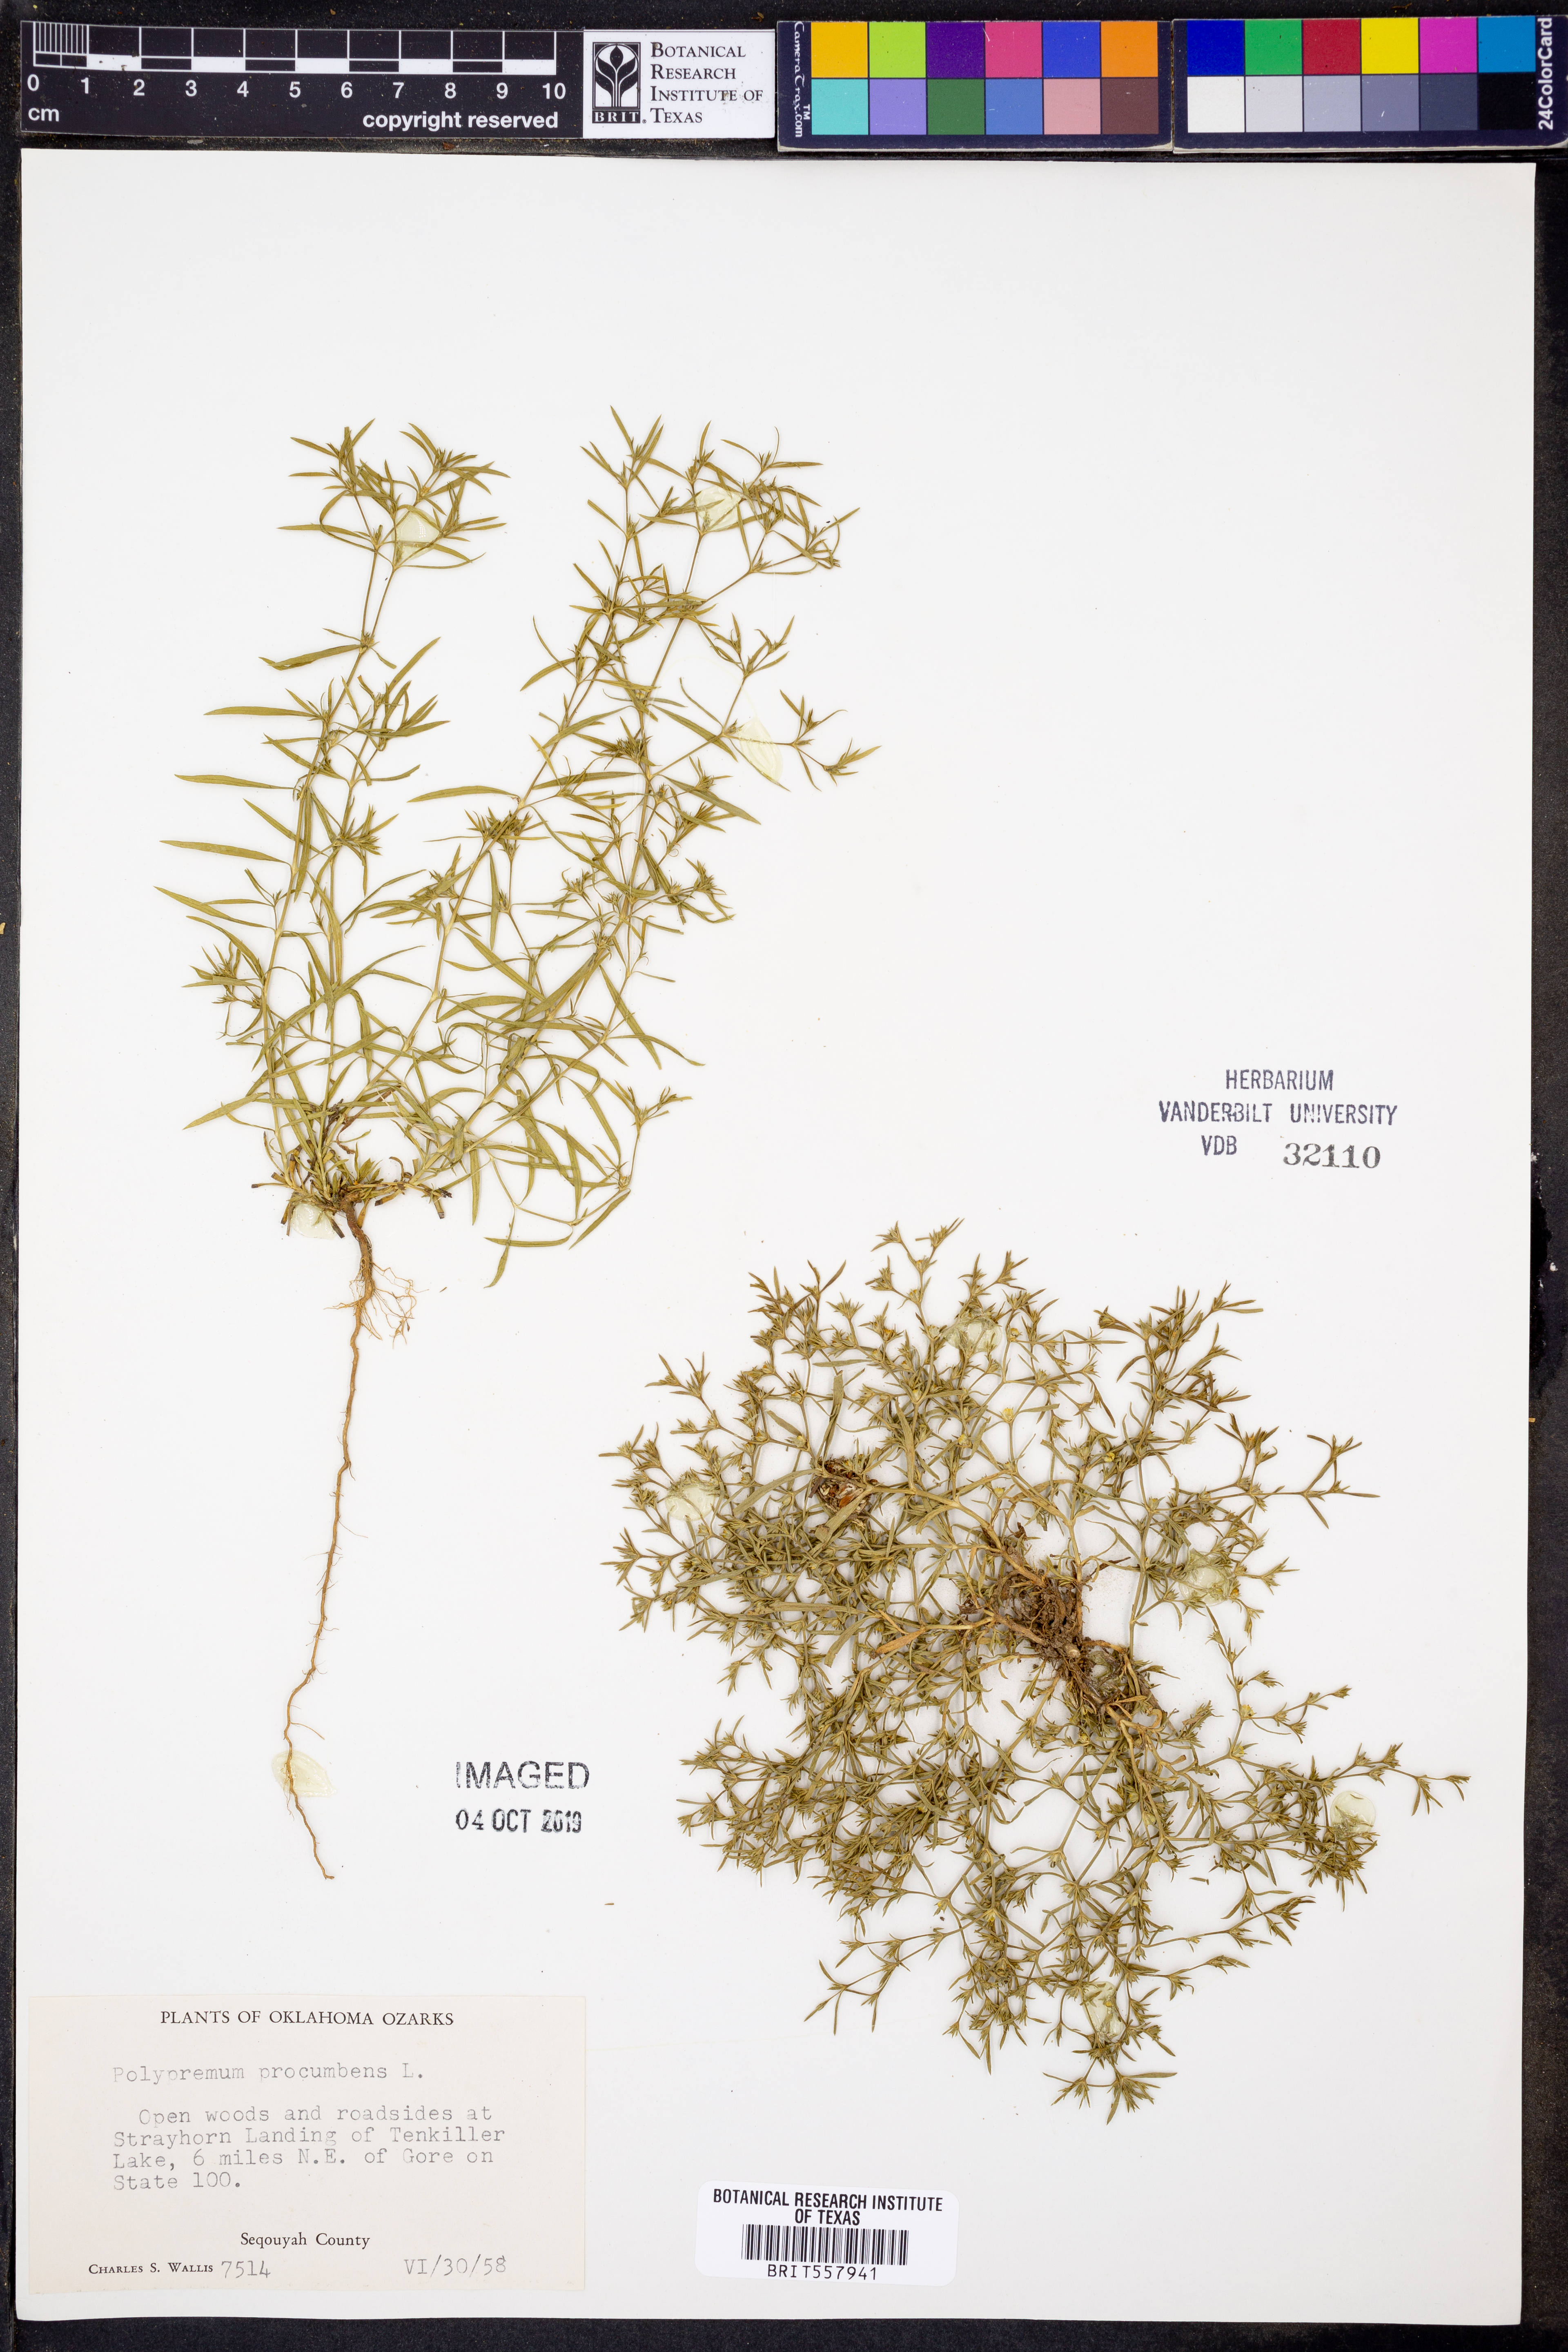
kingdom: Plantae
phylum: Tracheophyta
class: Magnoliopsida
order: Lamiales
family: Tetrachondraceae
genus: Polypremum
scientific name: Polypremum procumbens
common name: Juniper-leaf
